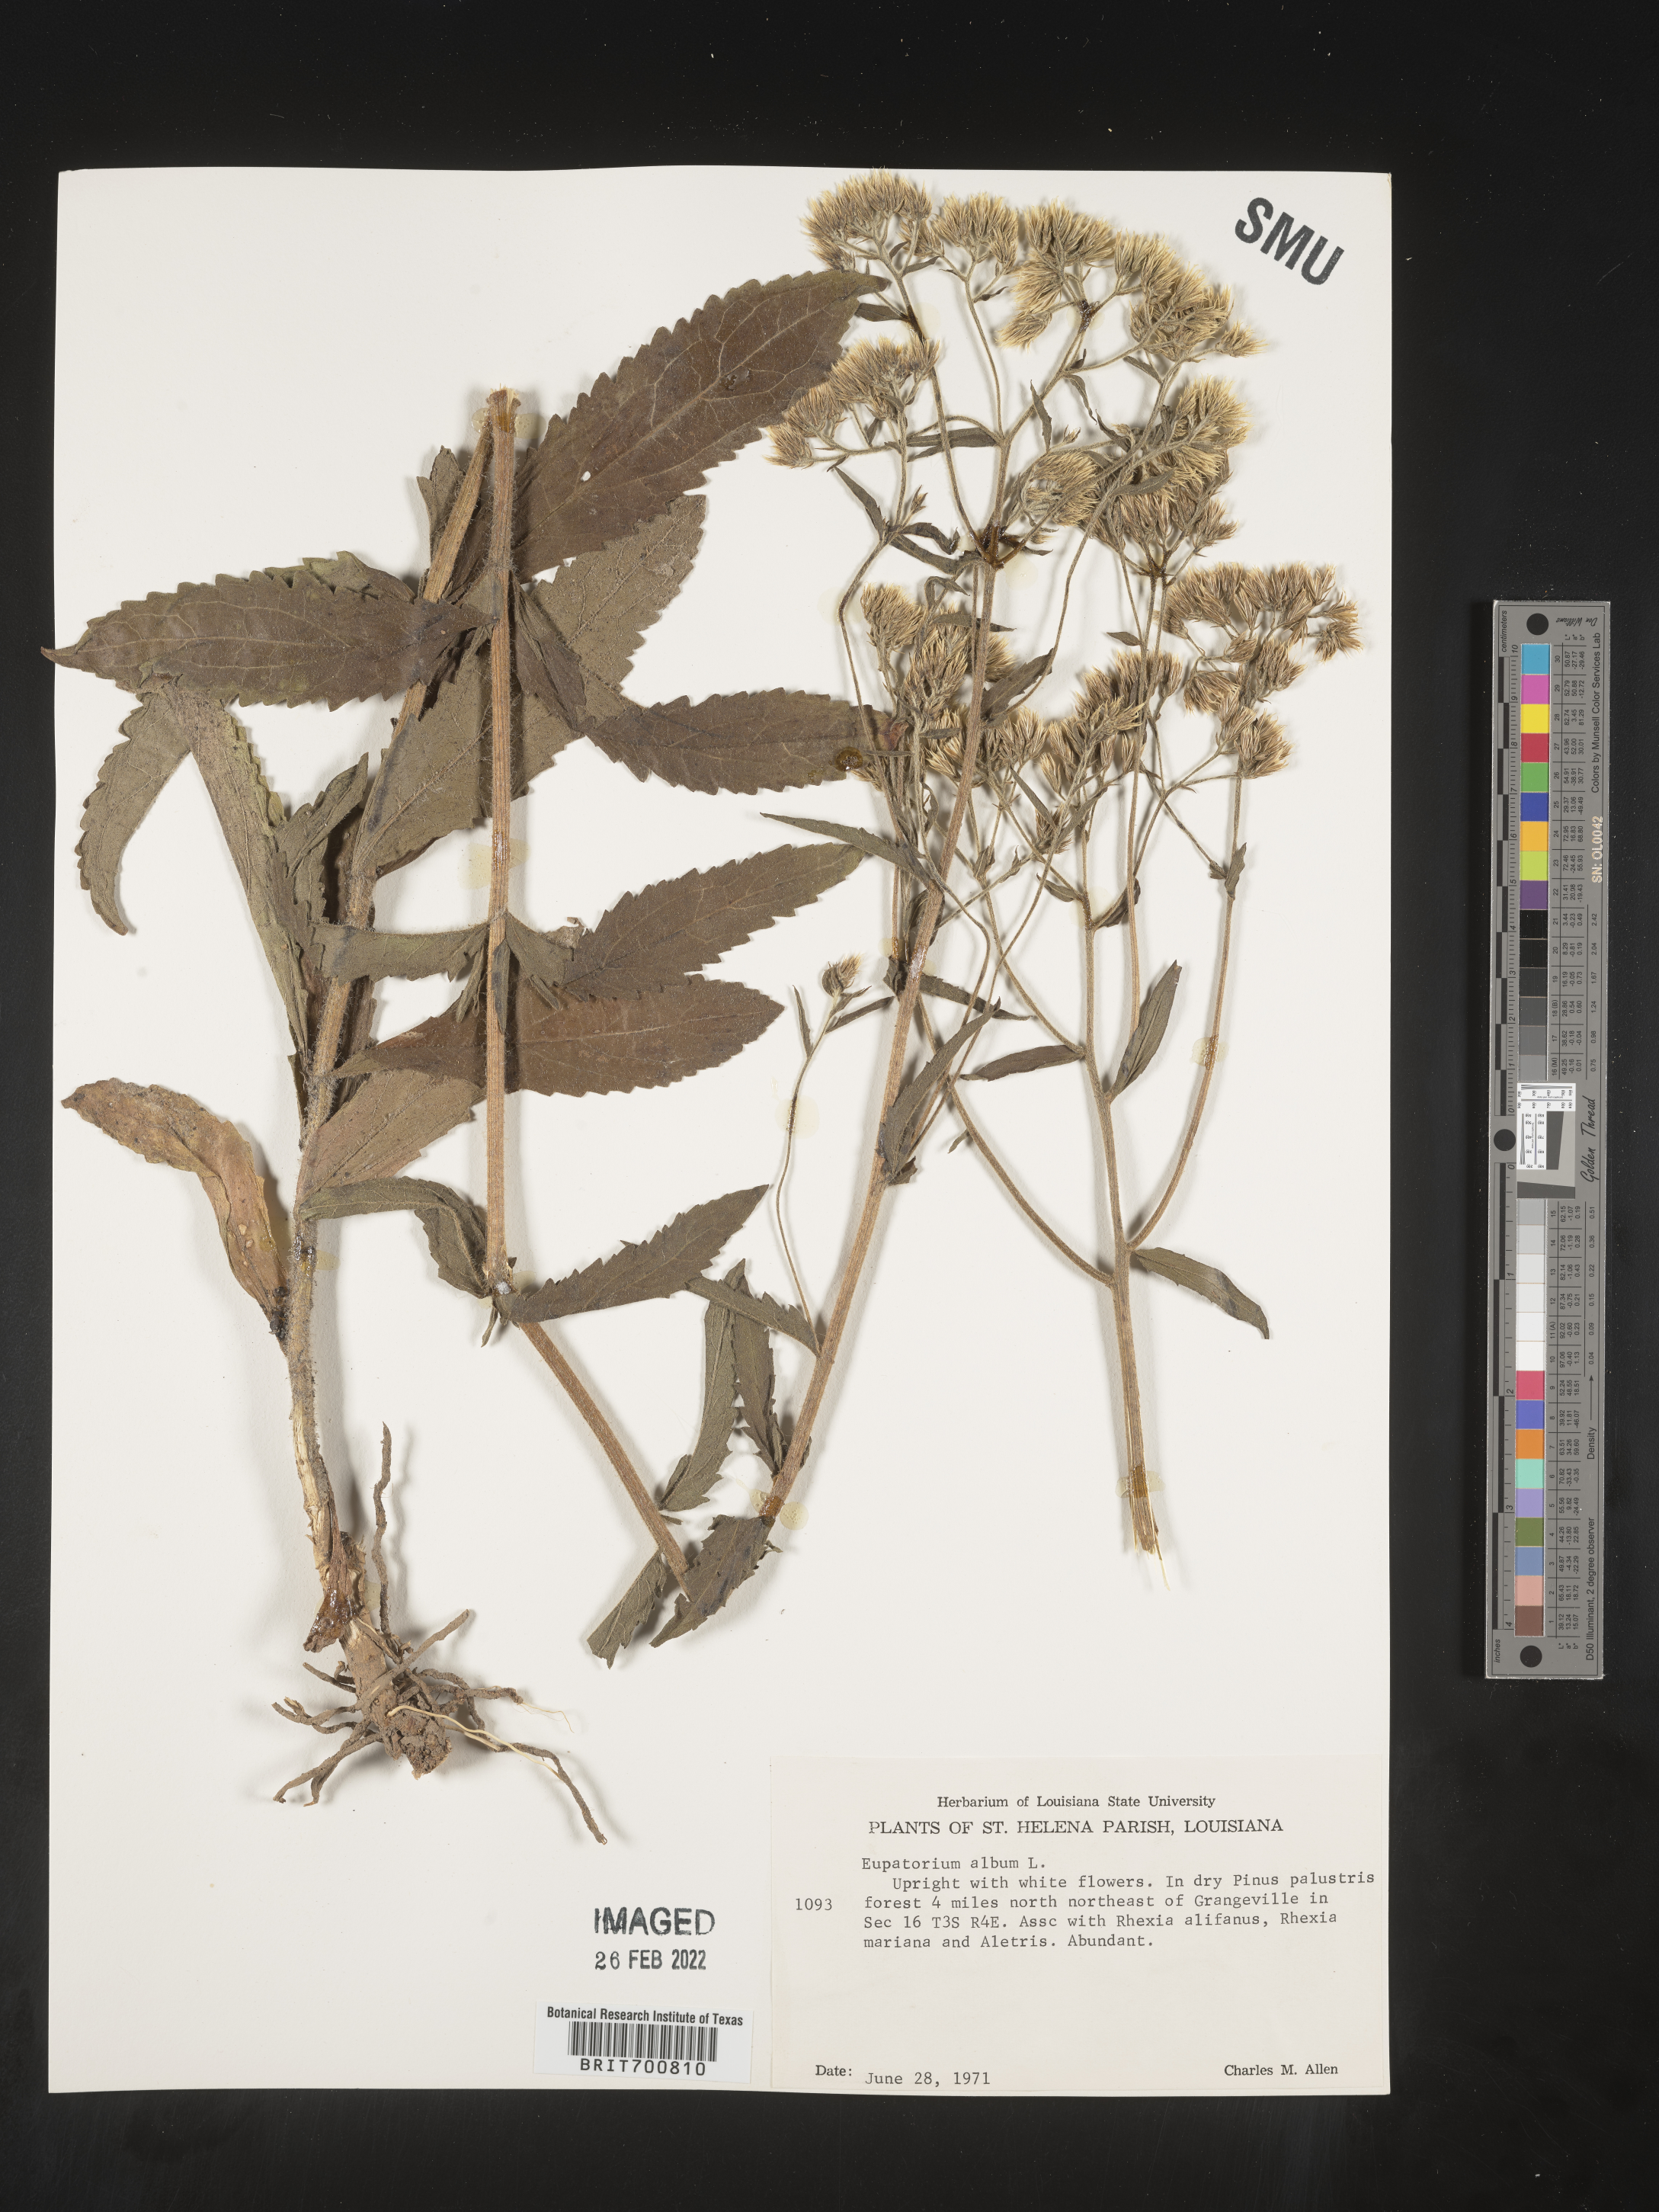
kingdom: Plantae
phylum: Tracheophyta
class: Magnoliopsida
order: Asterales
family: Asteraceae
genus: Eupatorium
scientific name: Eupatorium album
